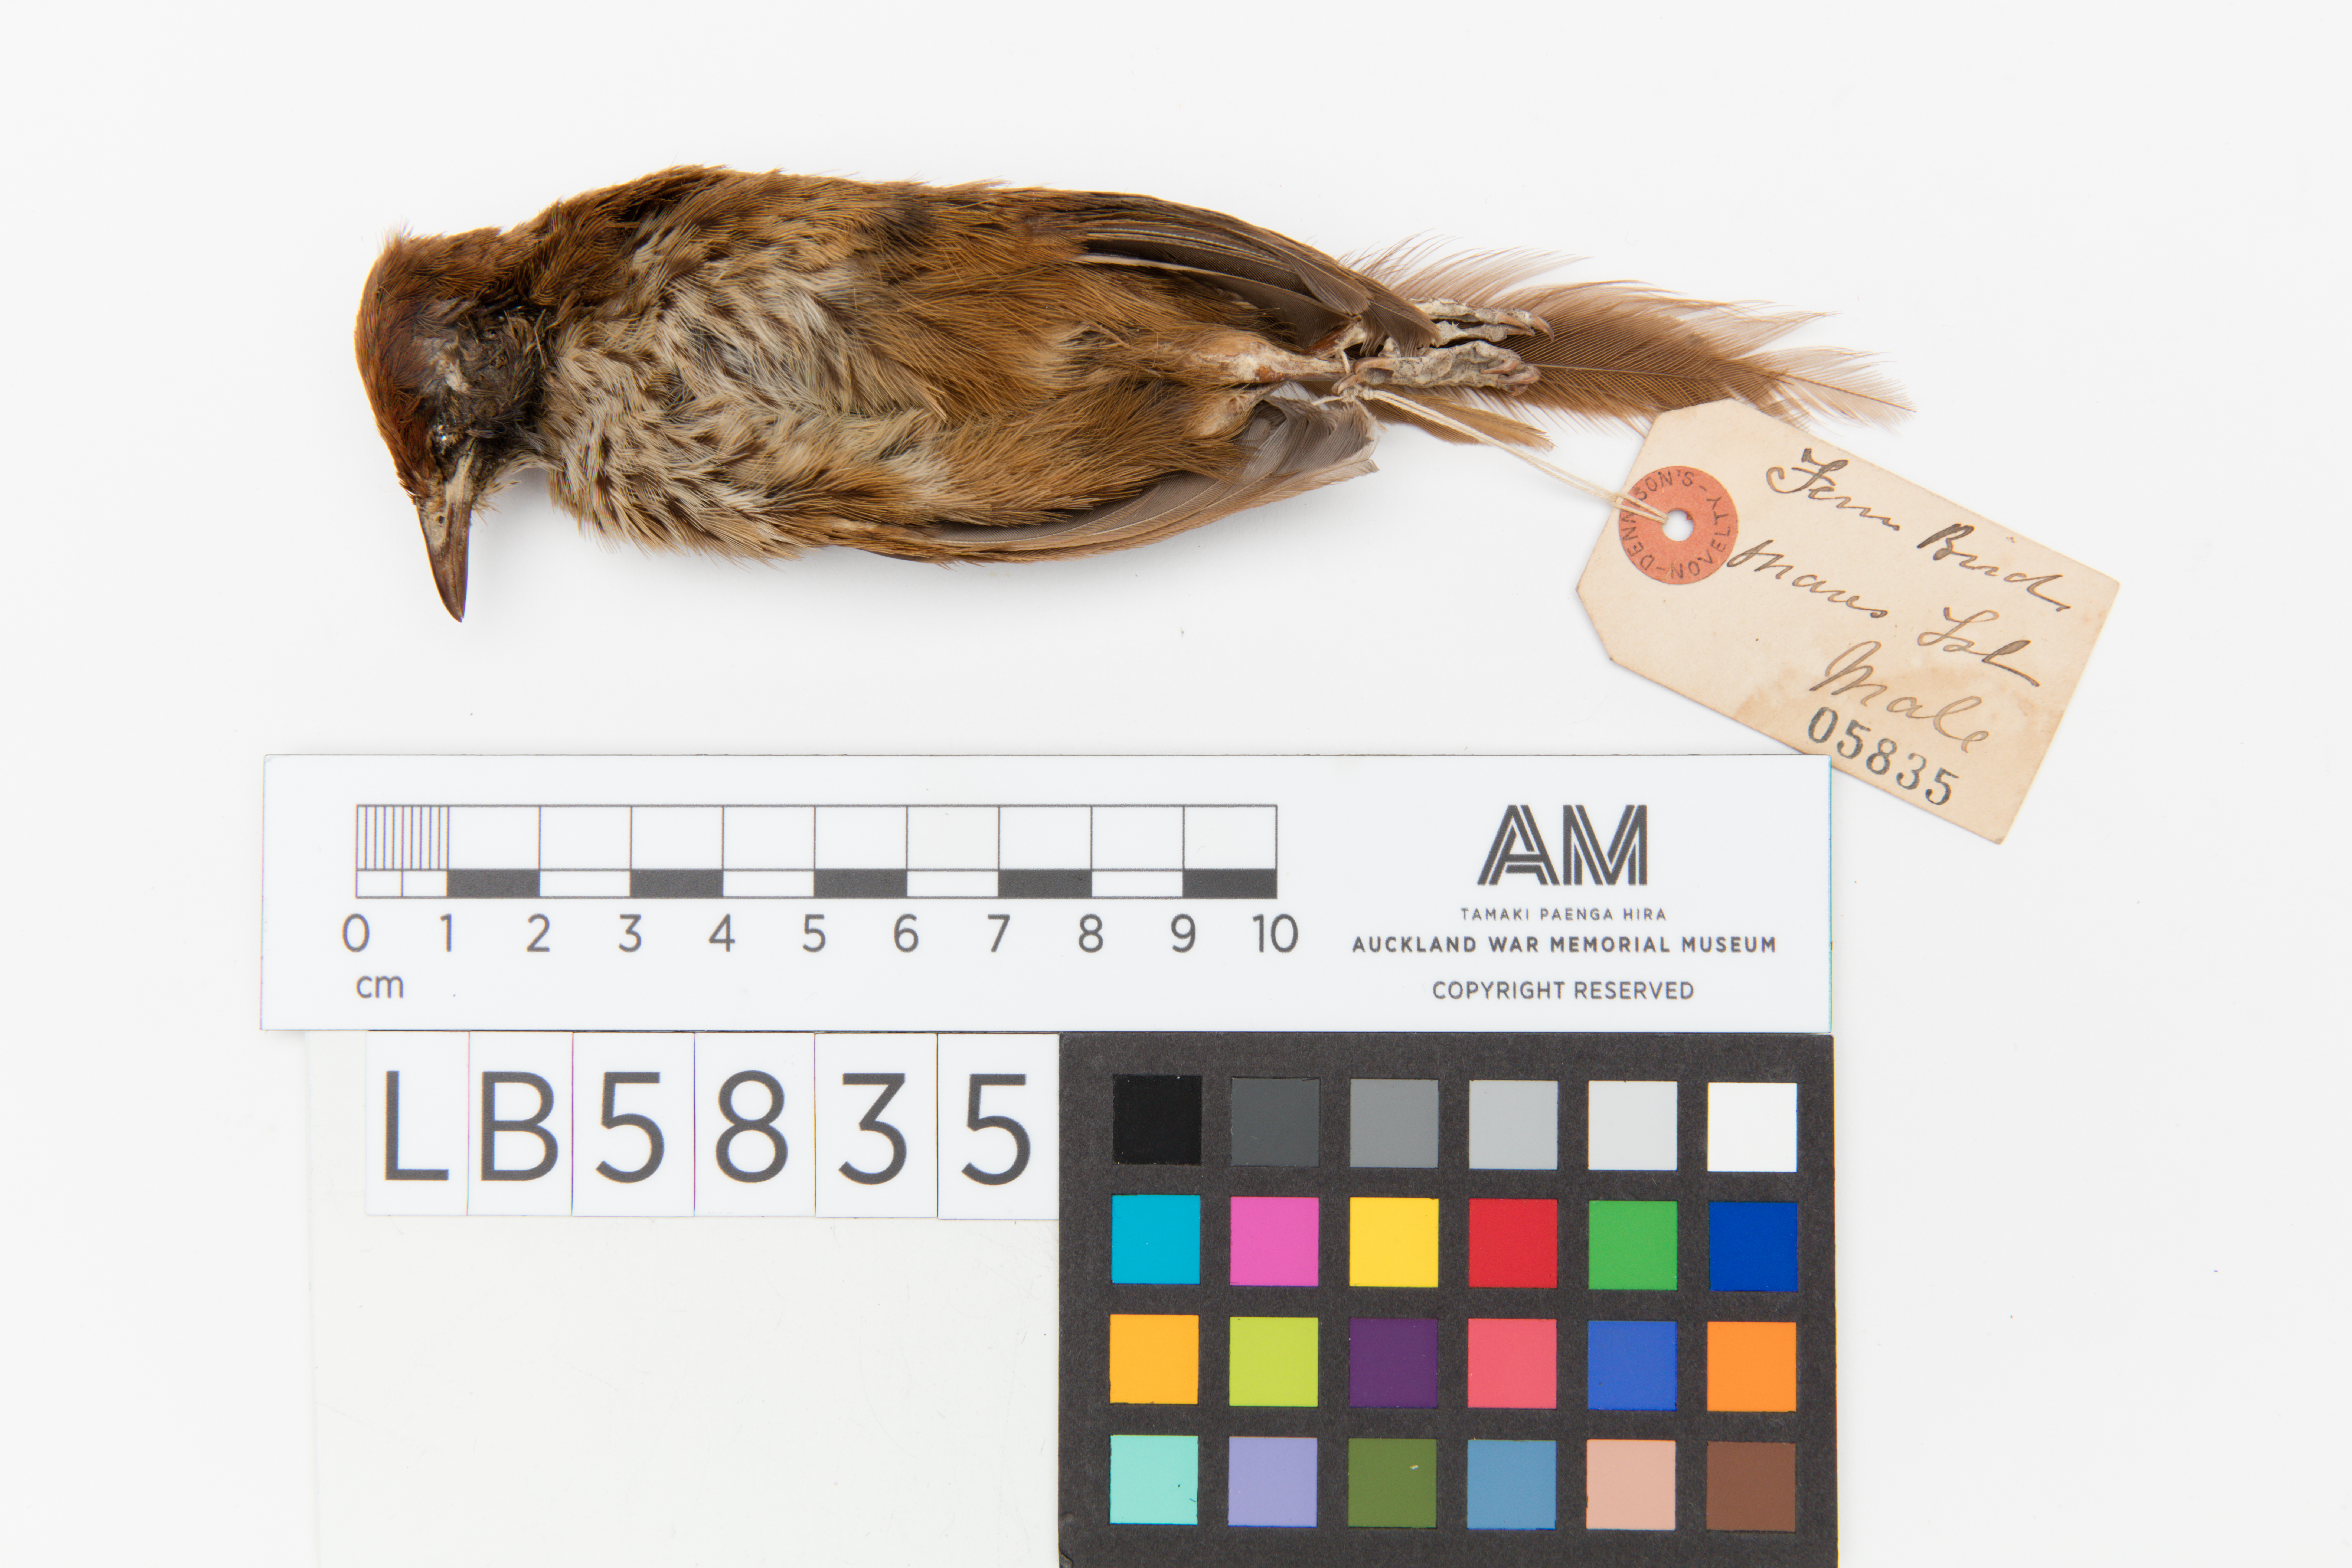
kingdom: Animalia
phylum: Chordata
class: Aves
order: Passeriformes
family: Locustellidae
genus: Megalurus
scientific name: Megalurus punctatus
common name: New zealand fernbird
